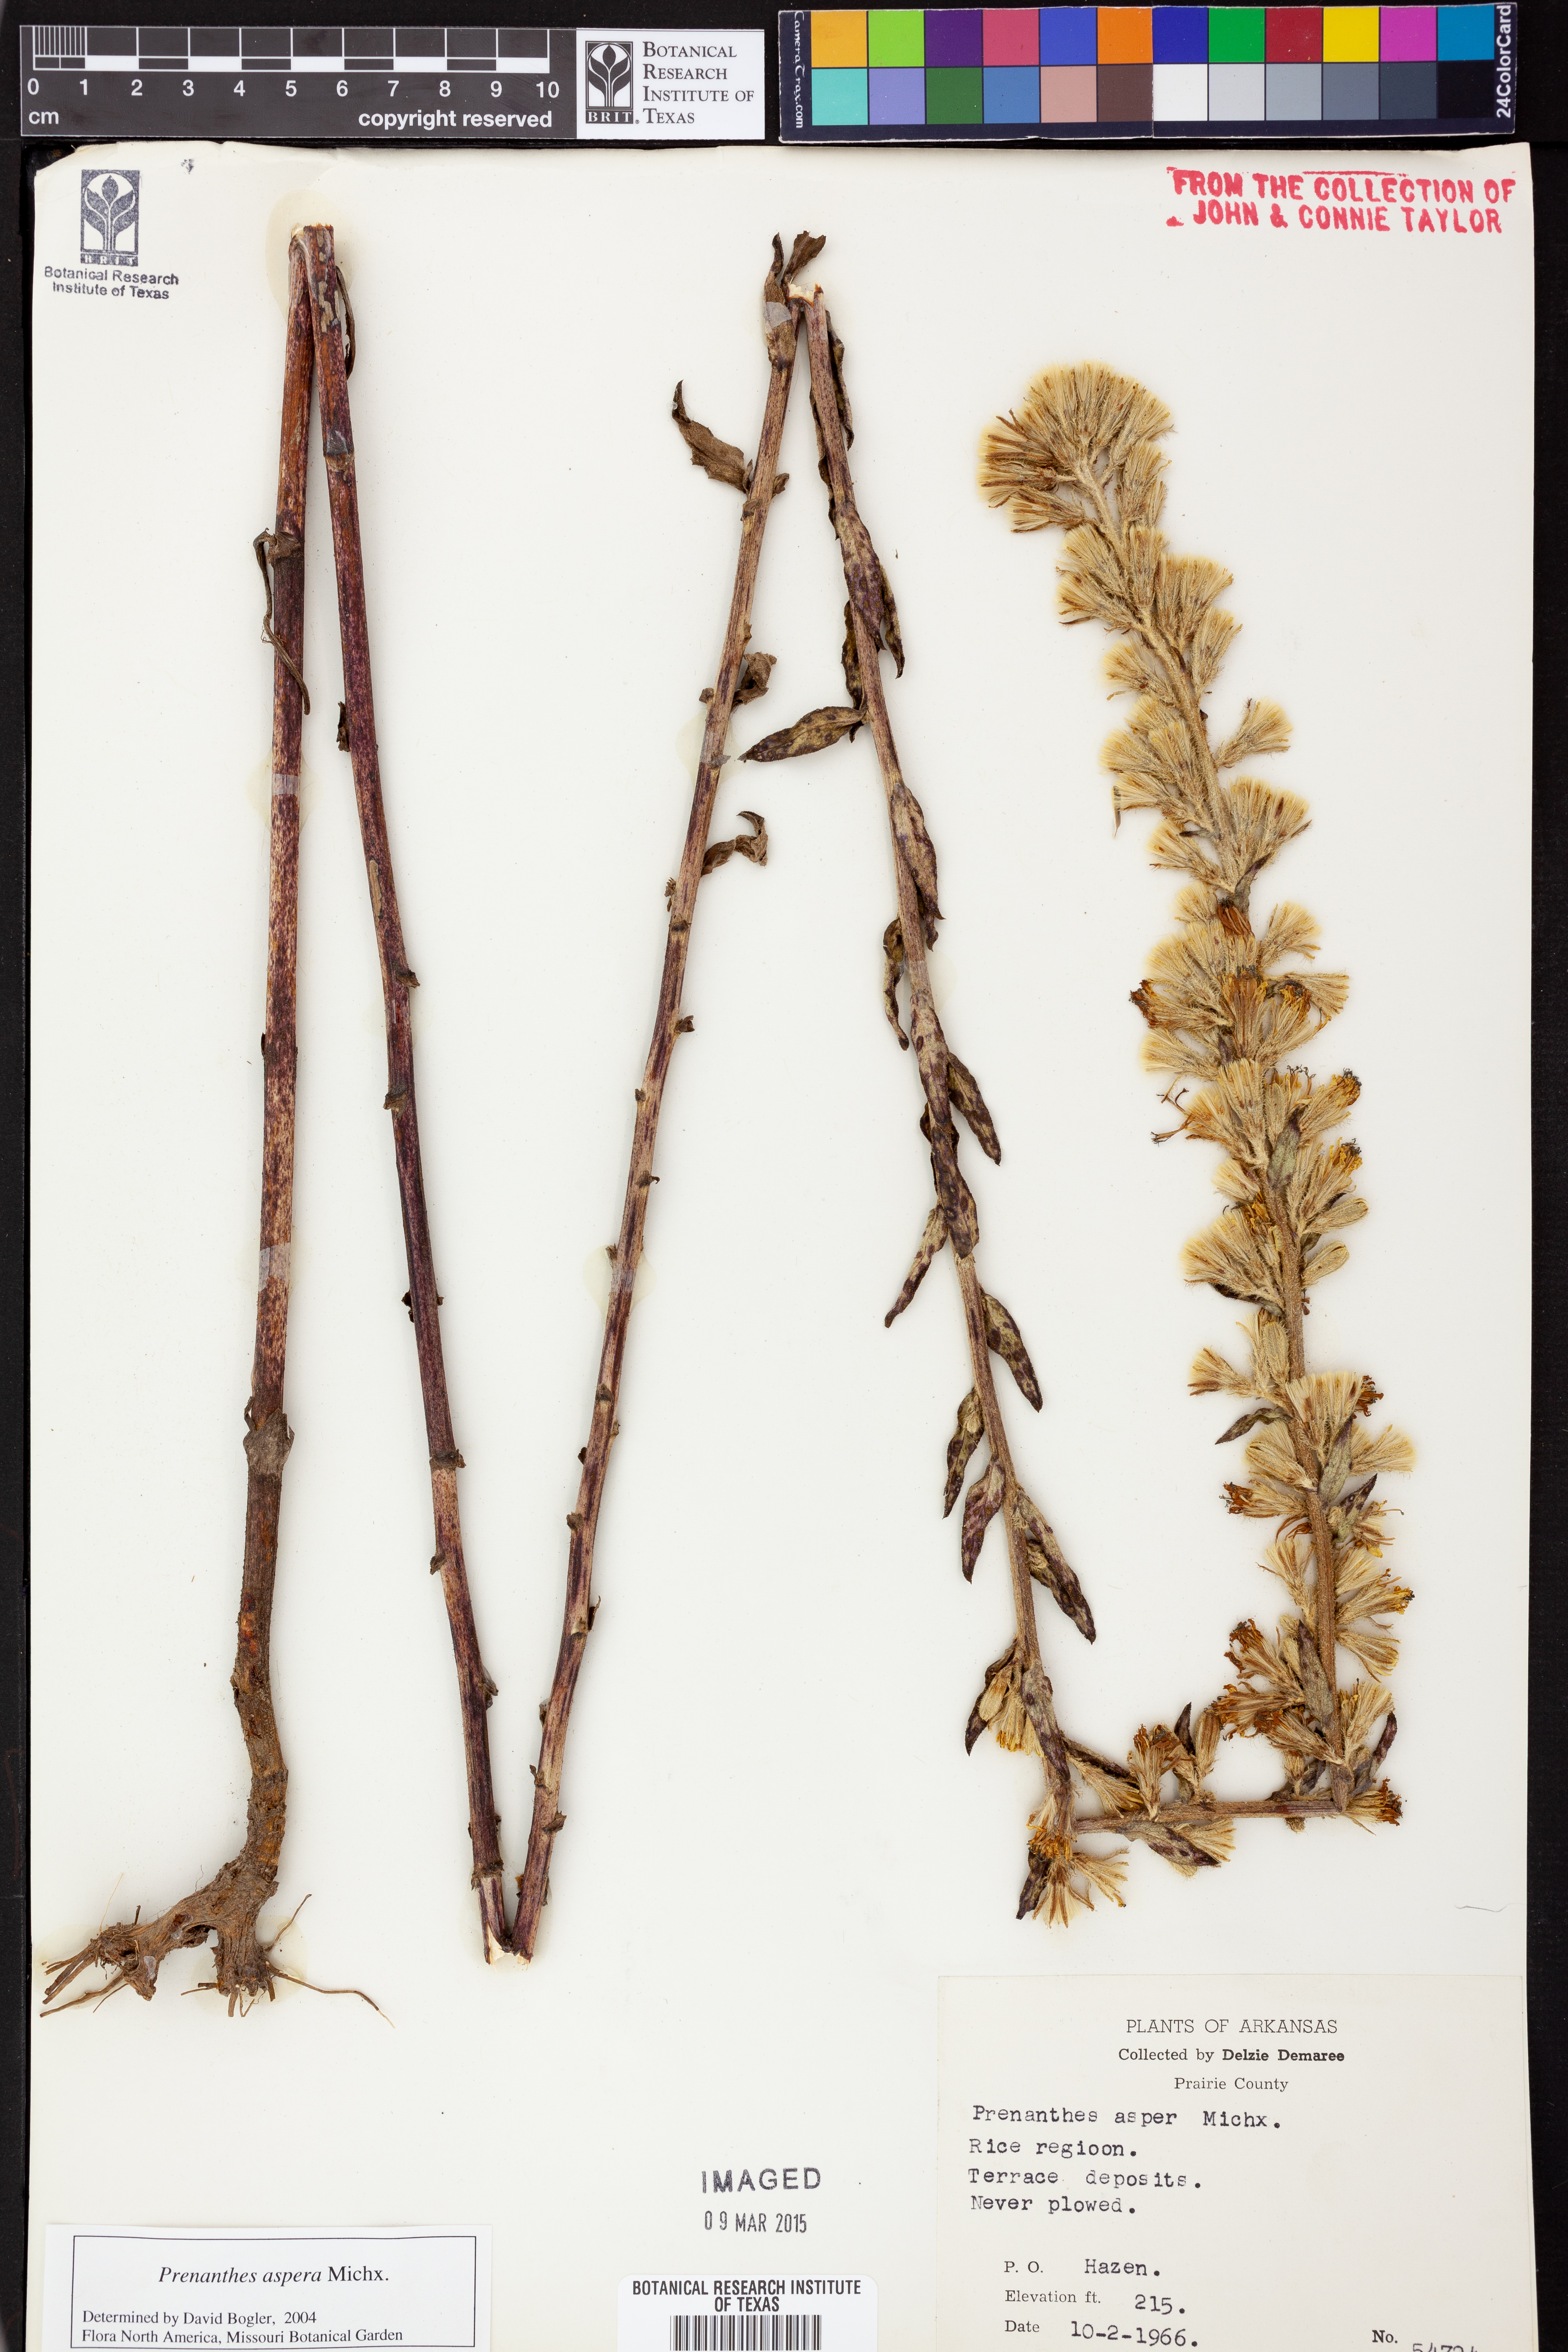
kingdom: Plantae
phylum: Tracheophyta
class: Magnoliopsida
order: Asterales
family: Asteraceae
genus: Nabalus
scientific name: Nabalus asper
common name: Rough rattlesnakeroot
